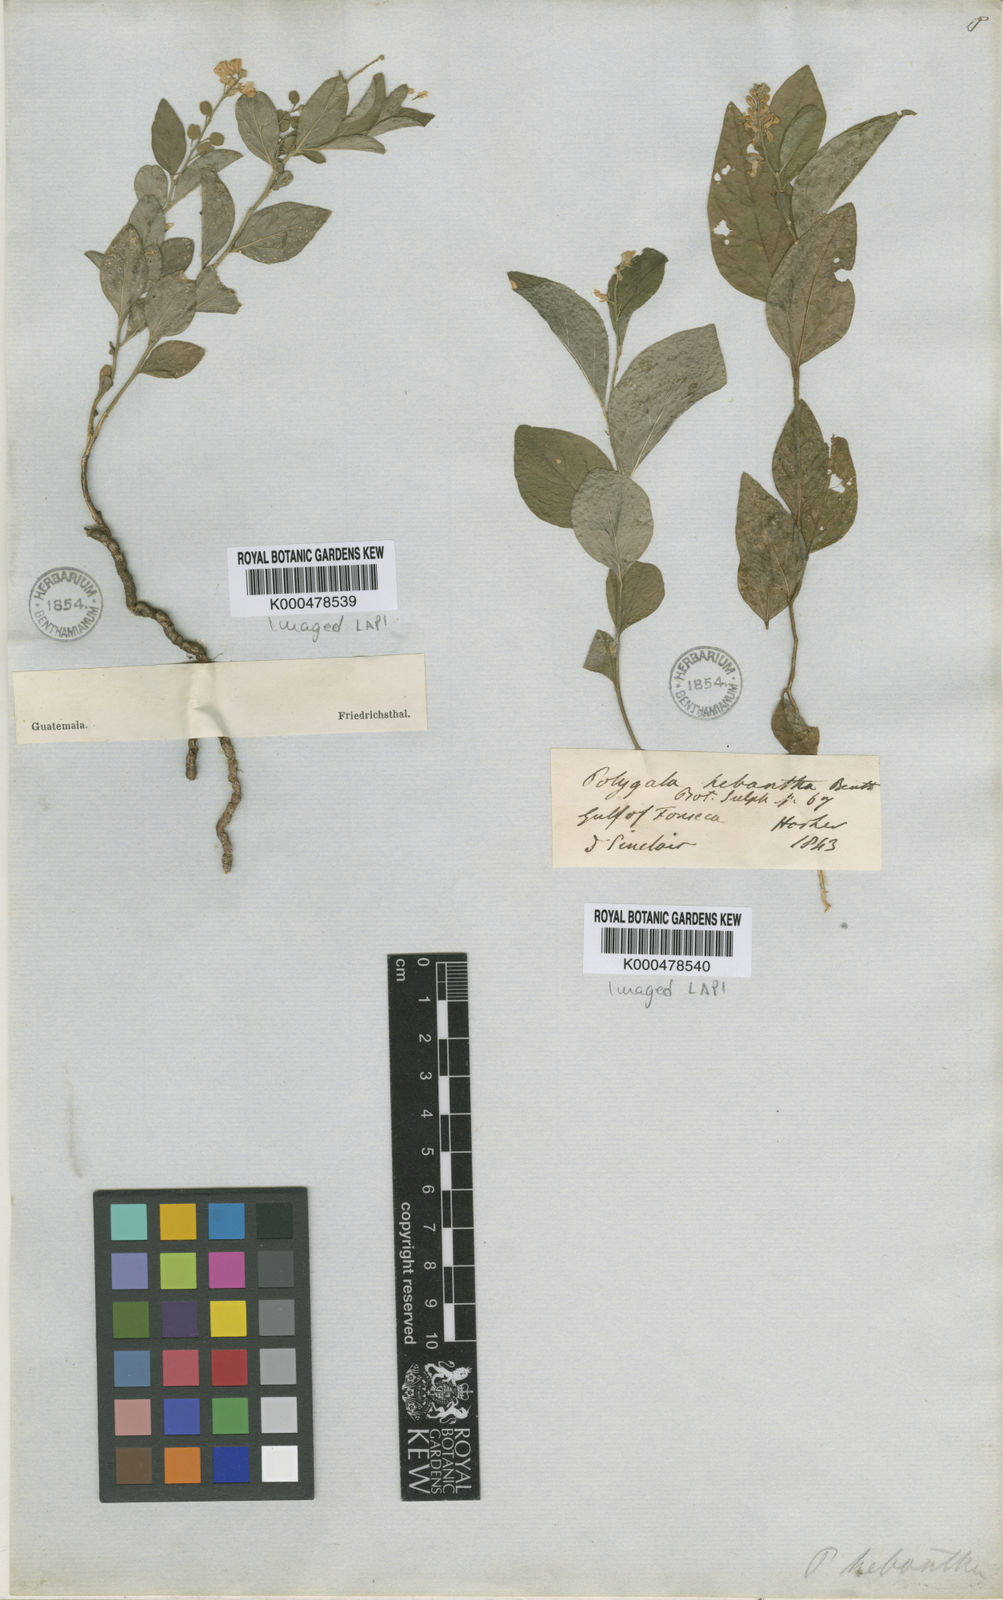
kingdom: Plantae
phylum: Tracheophyta
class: Magnoliopsida
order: Fabales
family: Polygalaceae
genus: Hebecarpa
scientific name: Hebecarpa hebantha
